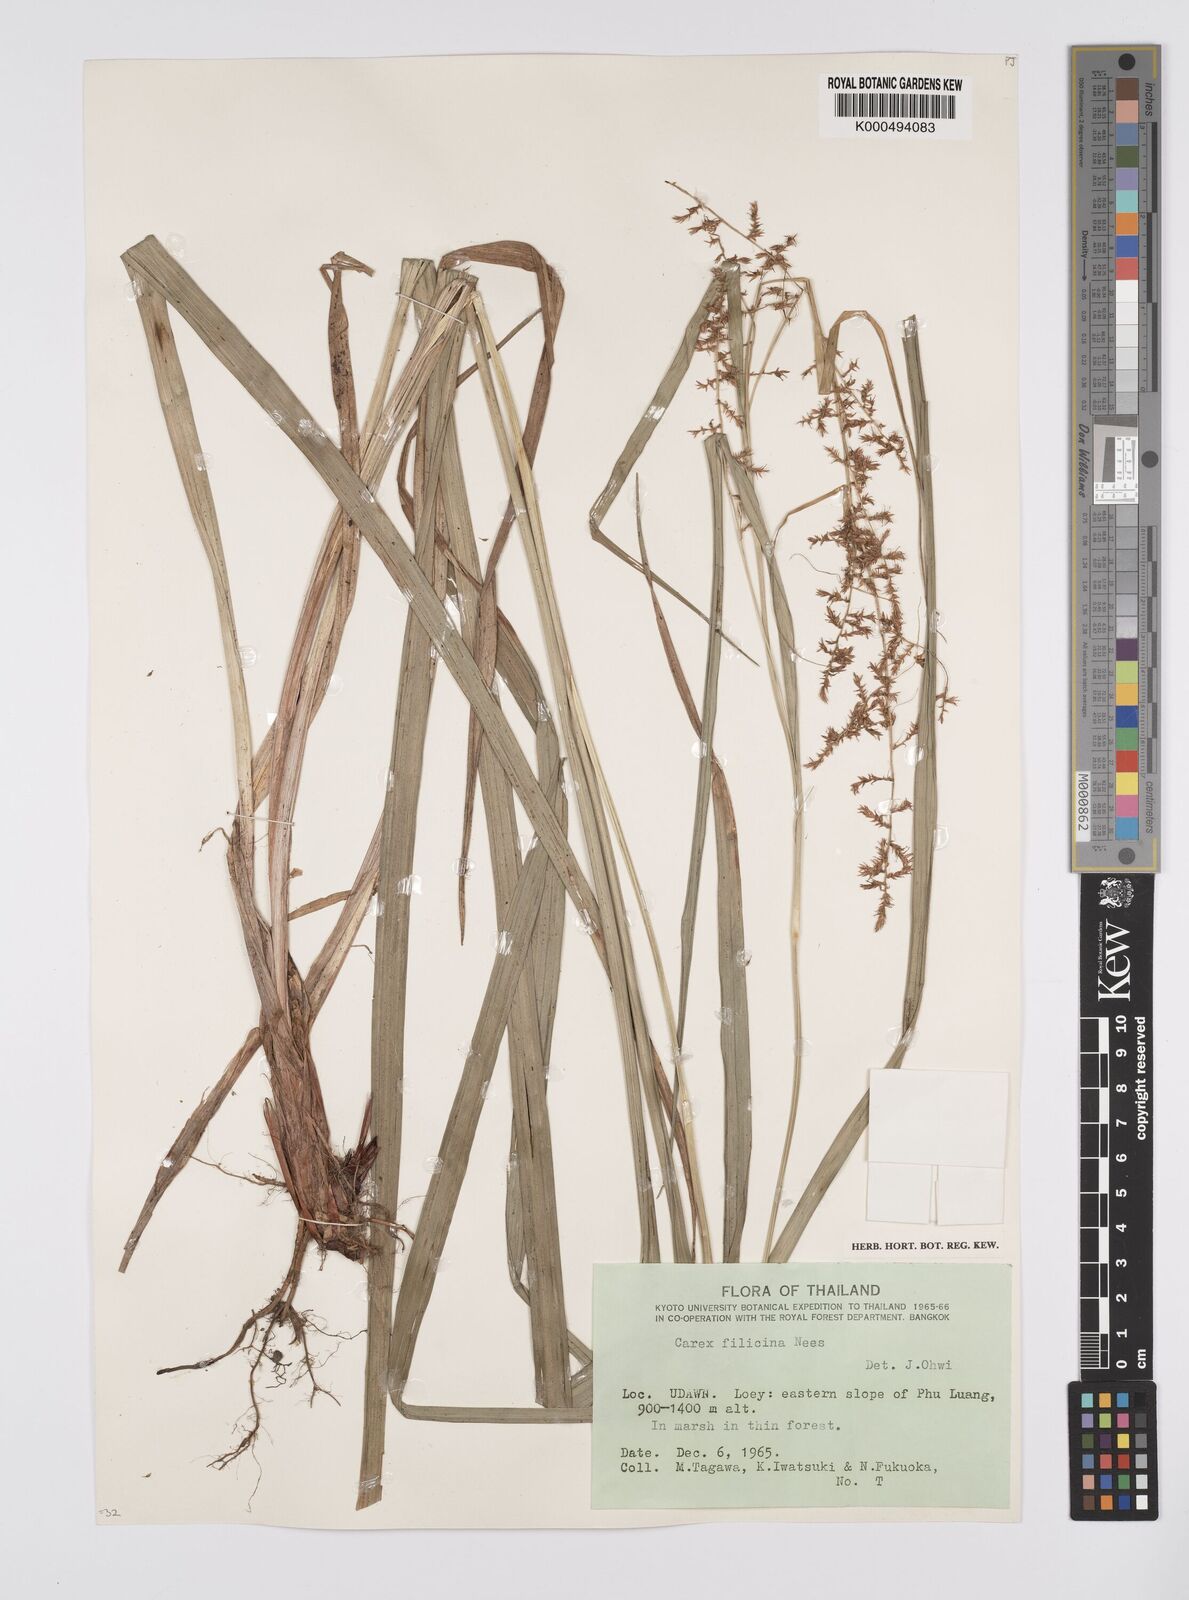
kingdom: Plantae
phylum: Tracheophyta
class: Liliopsida
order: Poales
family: Cyperaceae
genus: Carex
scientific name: Carex baccans
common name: Crimson seeded sedge
